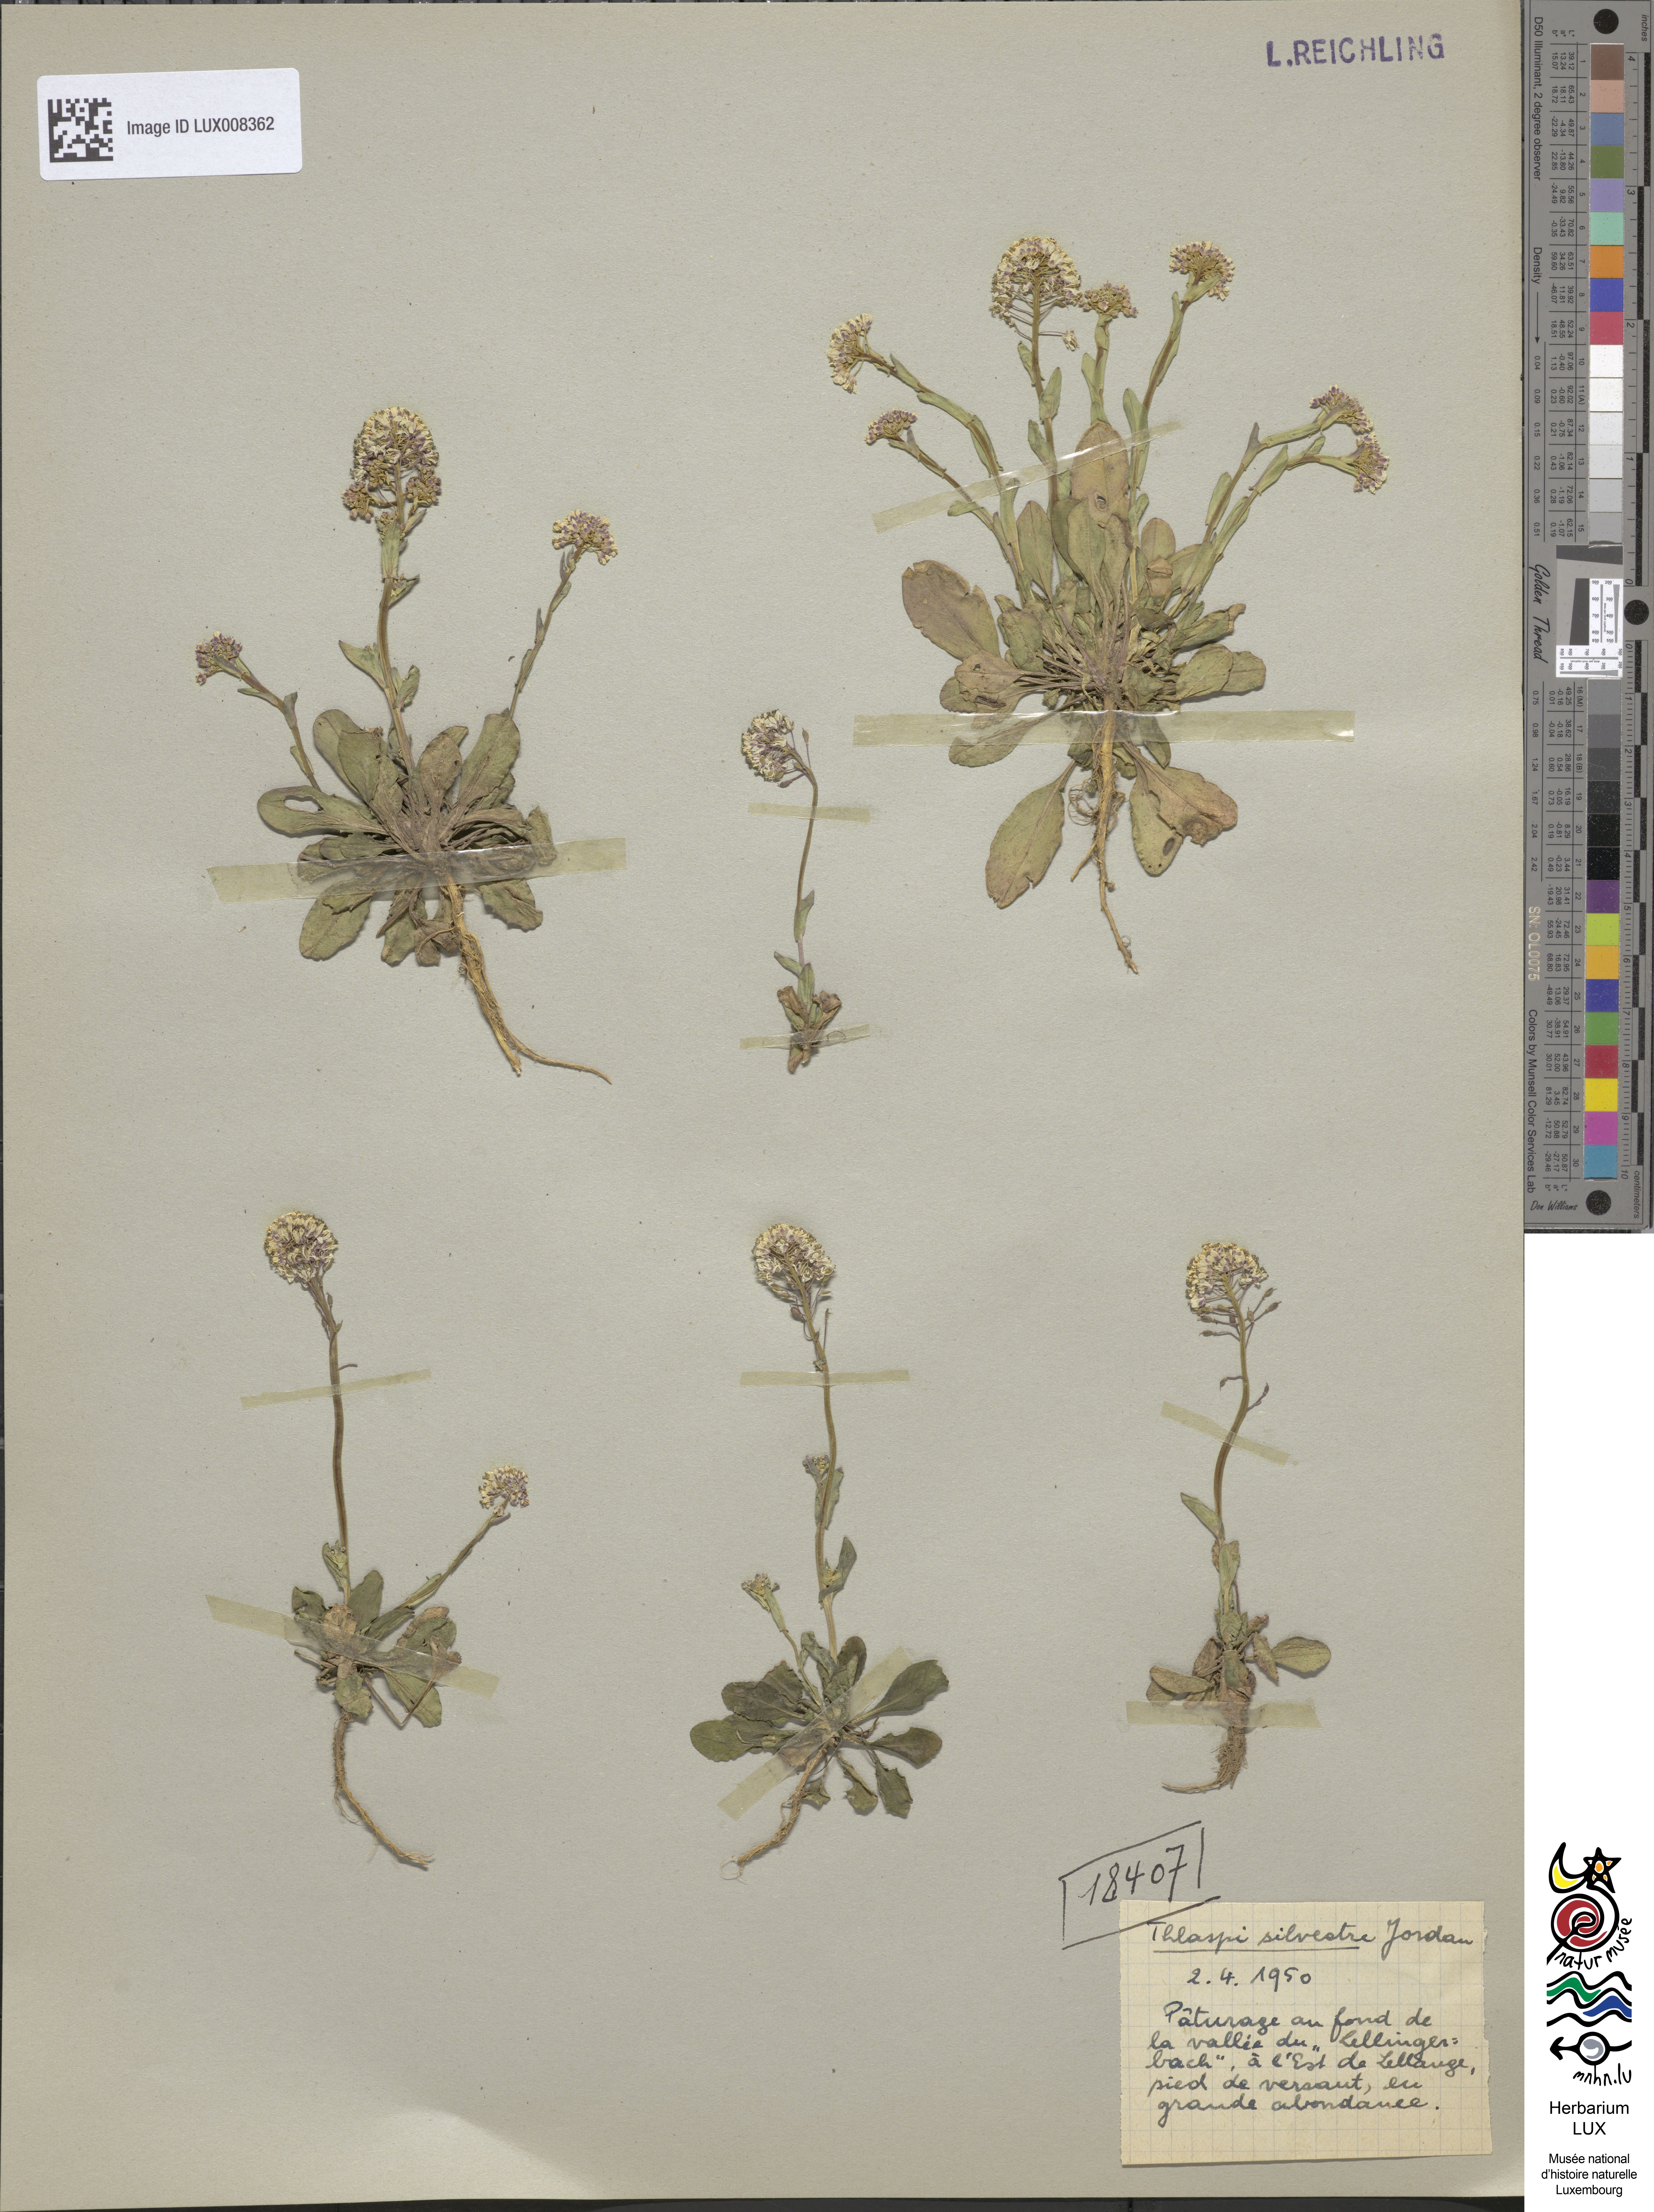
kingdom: Plantae
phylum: Tracheophyta
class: Magnoliopsida
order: Brassicales
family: Brassicaceae
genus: Noccaea
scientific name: Noccaea caerulescens
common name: Alpine pennycress
